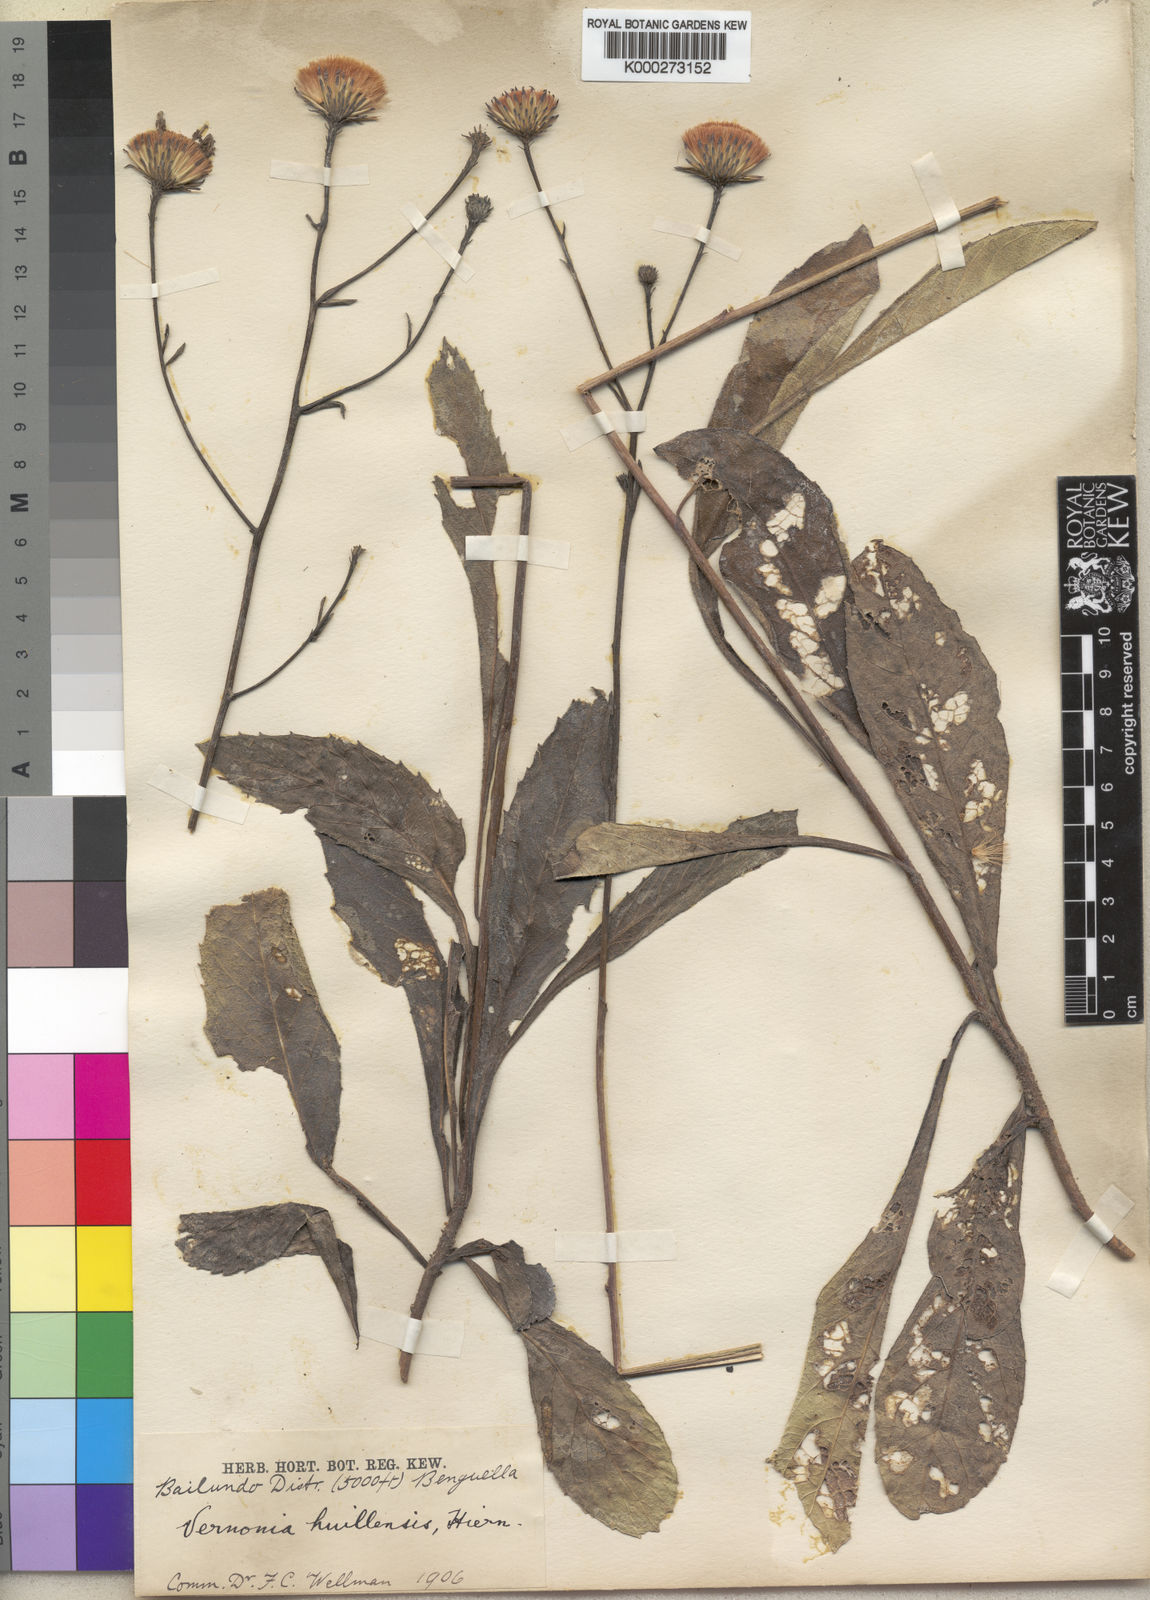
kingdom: Plantae
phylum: Tracheophyta
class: Magnoliopsida
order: Asterales
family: Asteraceae
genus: Vernonia
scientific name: Vernonia huillensis
